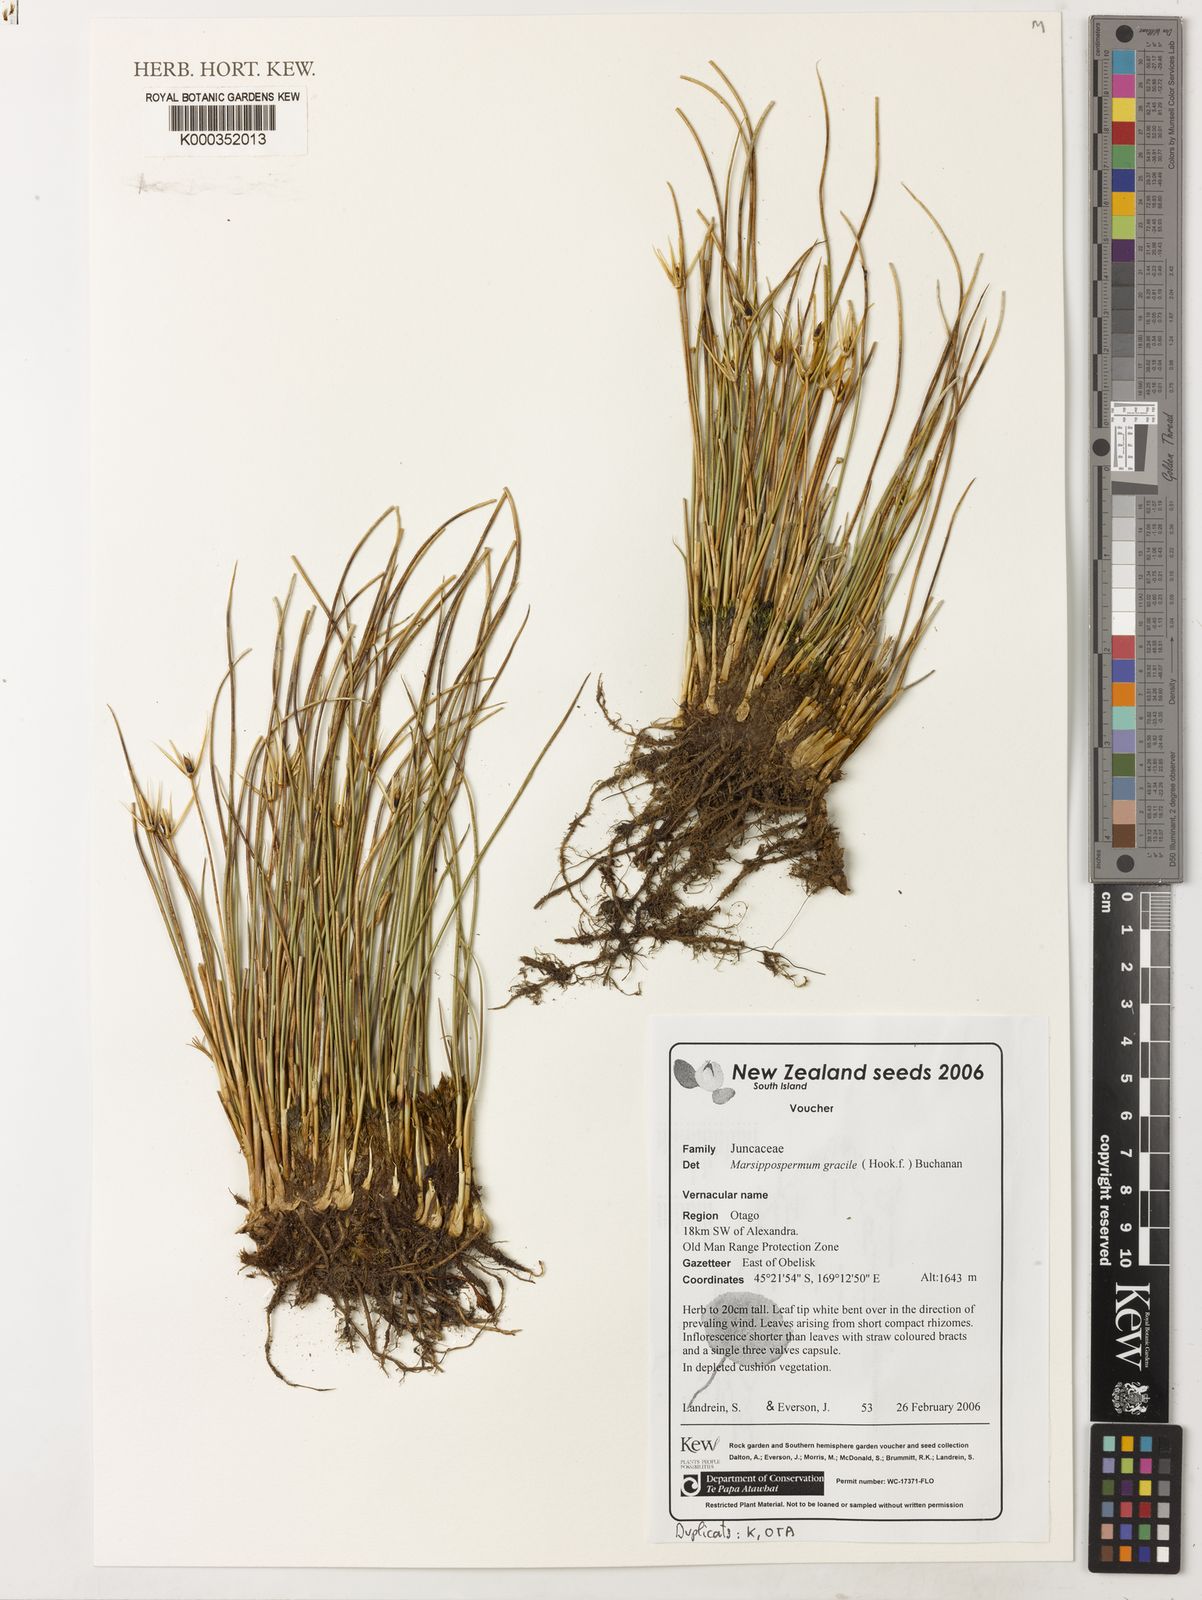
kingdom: Plantae
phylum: Tracheophyta
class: Liliopsida
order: Poales
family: Juncaceae
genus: Marsippospermum
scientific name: Marsippospermum gracile
